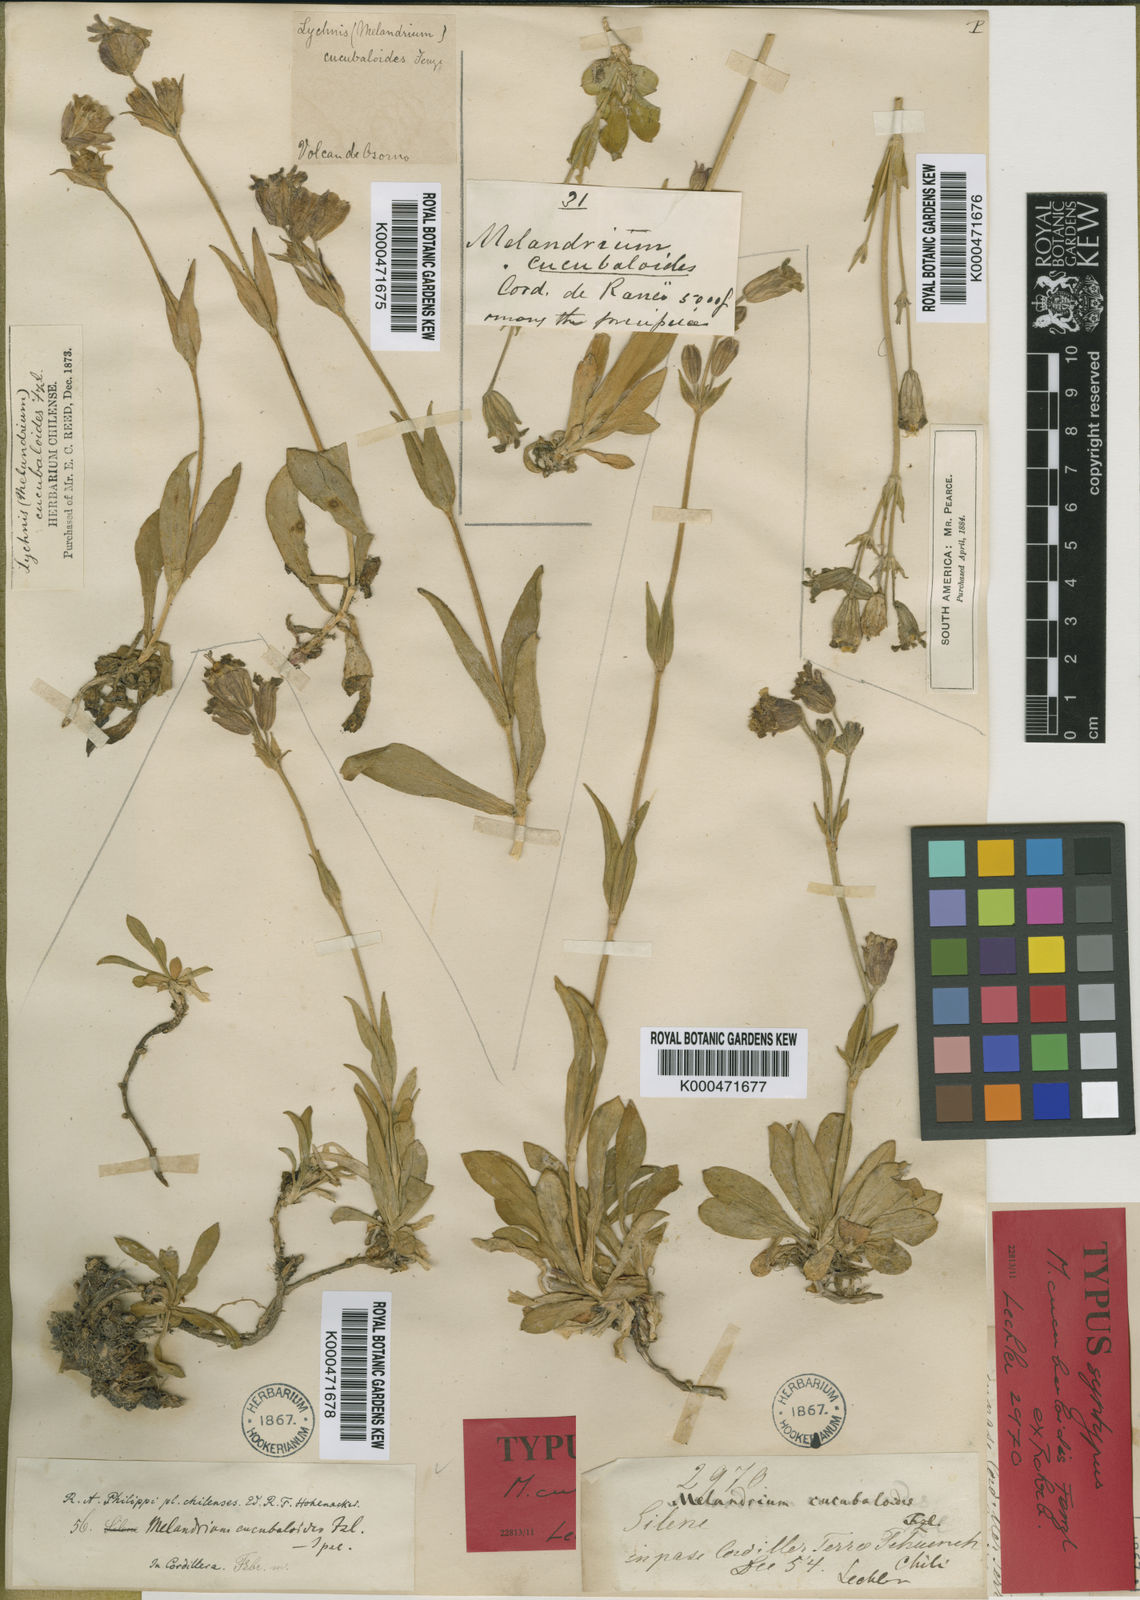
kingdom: Plantae
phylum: Tracheophyta
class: Magnoliopsida
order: Caryophyllales
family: Caryophyllaceae
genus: Silene
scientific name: Silene andicola
